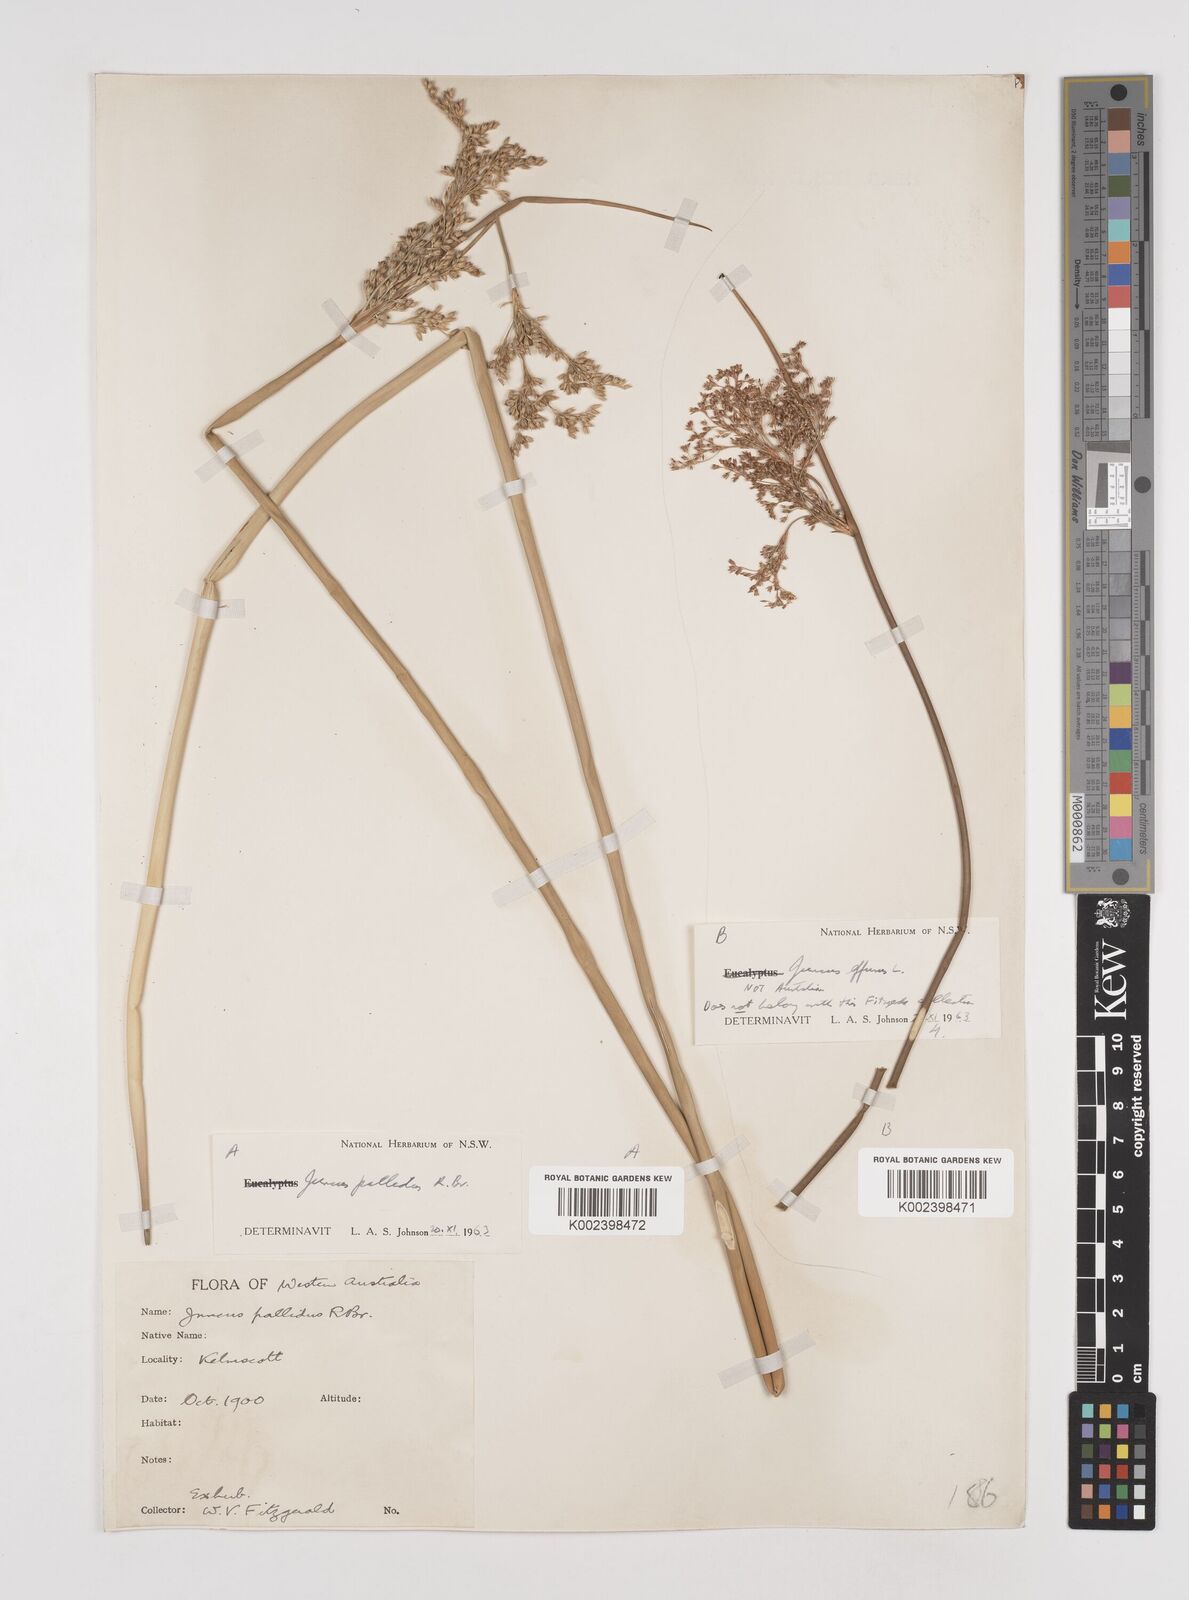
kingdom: Plantae
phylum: Tracheophyta
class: Liliopsida
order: Poales
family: Juncaceae
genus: Juncus
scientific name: Juncus pallidus
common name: Great soft-rush
